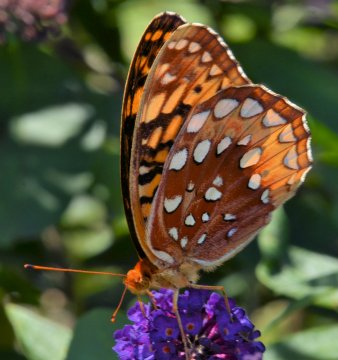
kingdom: Animalia
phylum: Arthropoda
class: Insecta
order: Lepidoptera
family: Nymphalidae
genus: Speyeria
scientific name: Speyeria cybele
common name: Great Spangled Fritillary
